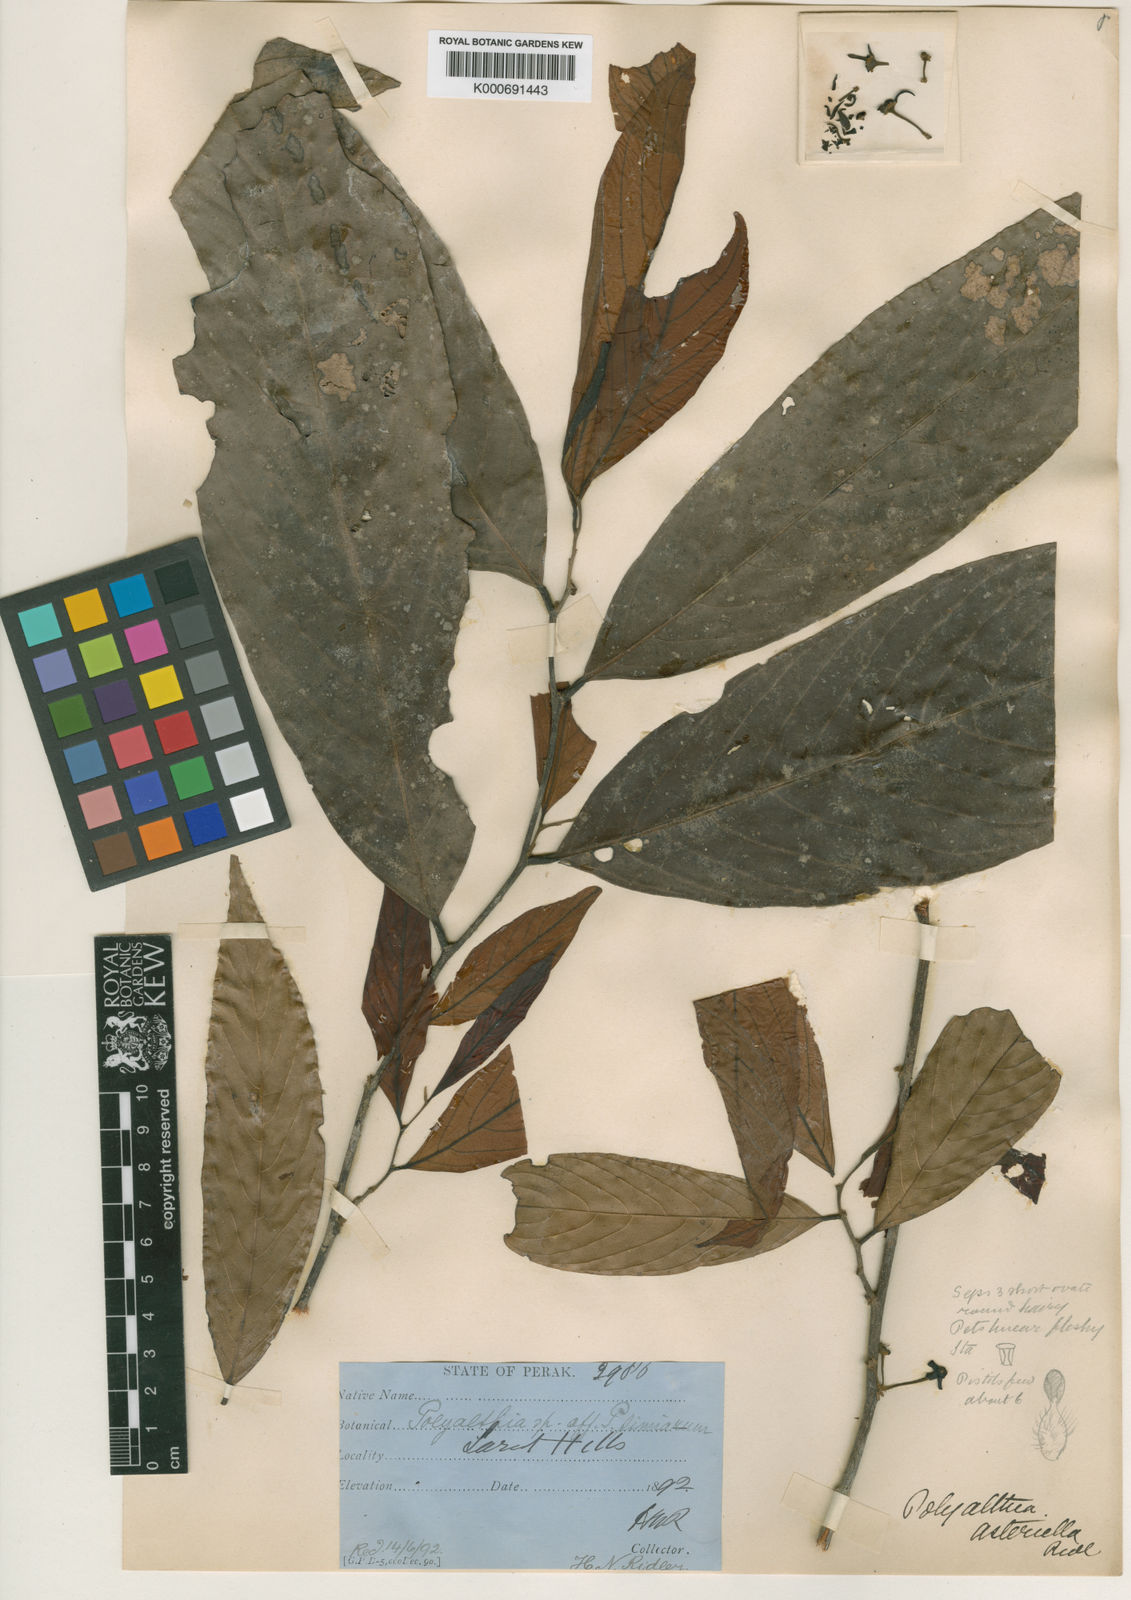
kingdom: Plantae
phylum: Tracheophyta
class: Magnoliopsida
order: Magnoliales
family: Annonaceae
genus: Polyalthia
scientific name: Polyalthia asteriella
